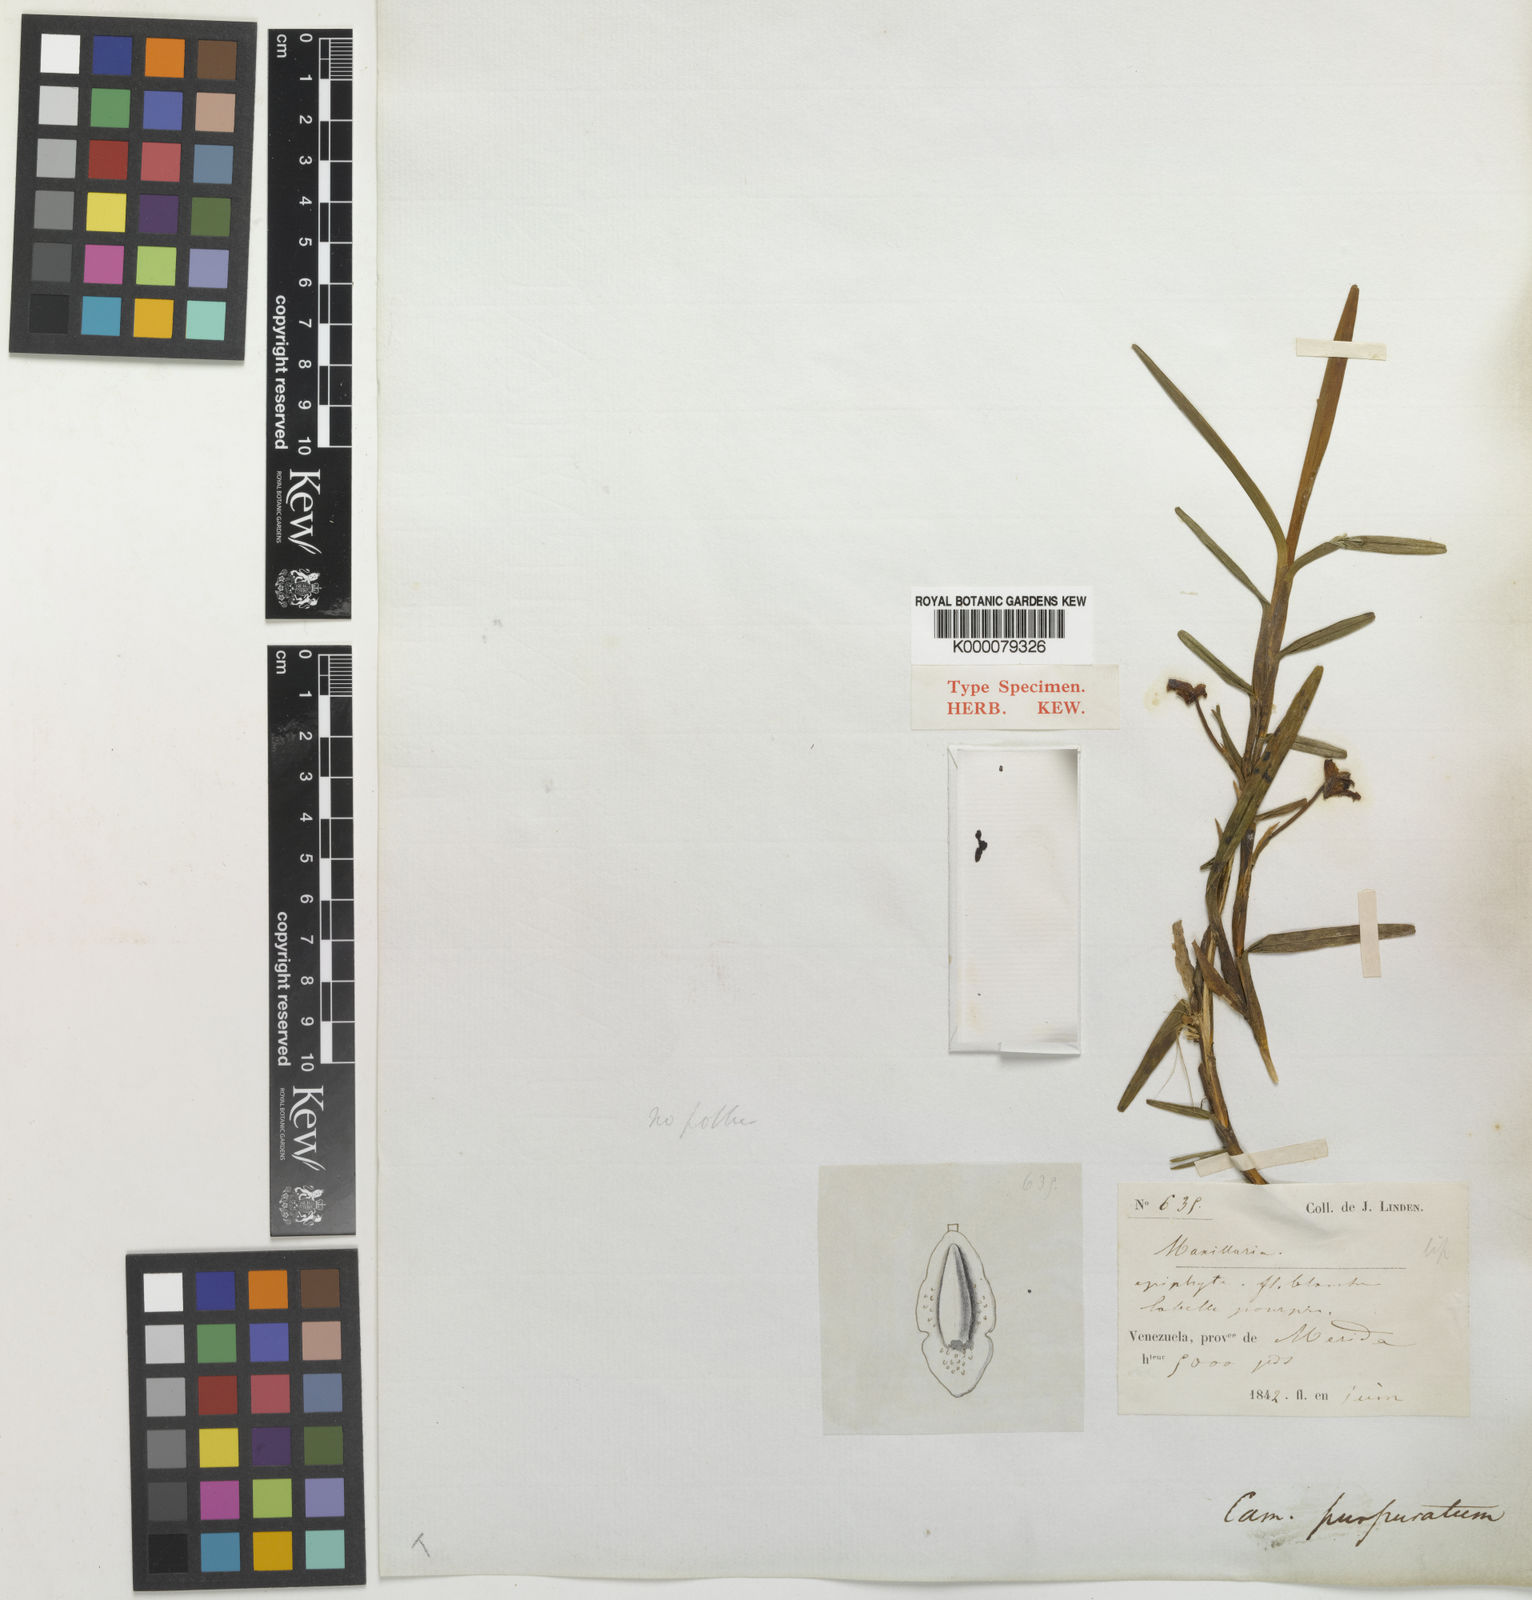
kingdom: Plantae
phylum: Tracheophyta
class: Liliopsida
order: Asparagales
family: Orchidaceae
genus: Maxillaria
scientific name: Maxillaria purpurata
